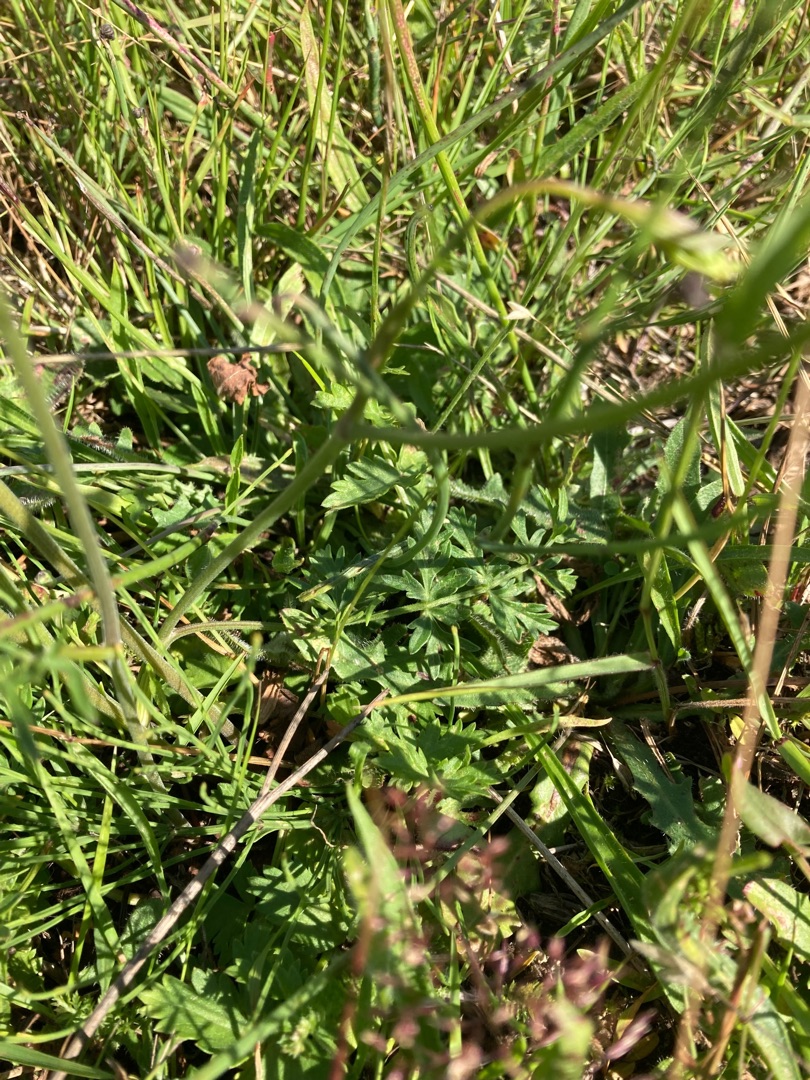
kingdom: Plantae
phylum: Tracheophyta
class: Magnoliopsida
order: Apiales
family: Apiaceae
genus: Pimpinella
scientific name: Pimpinella saxifraga
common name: Almindelig pimpinelle
